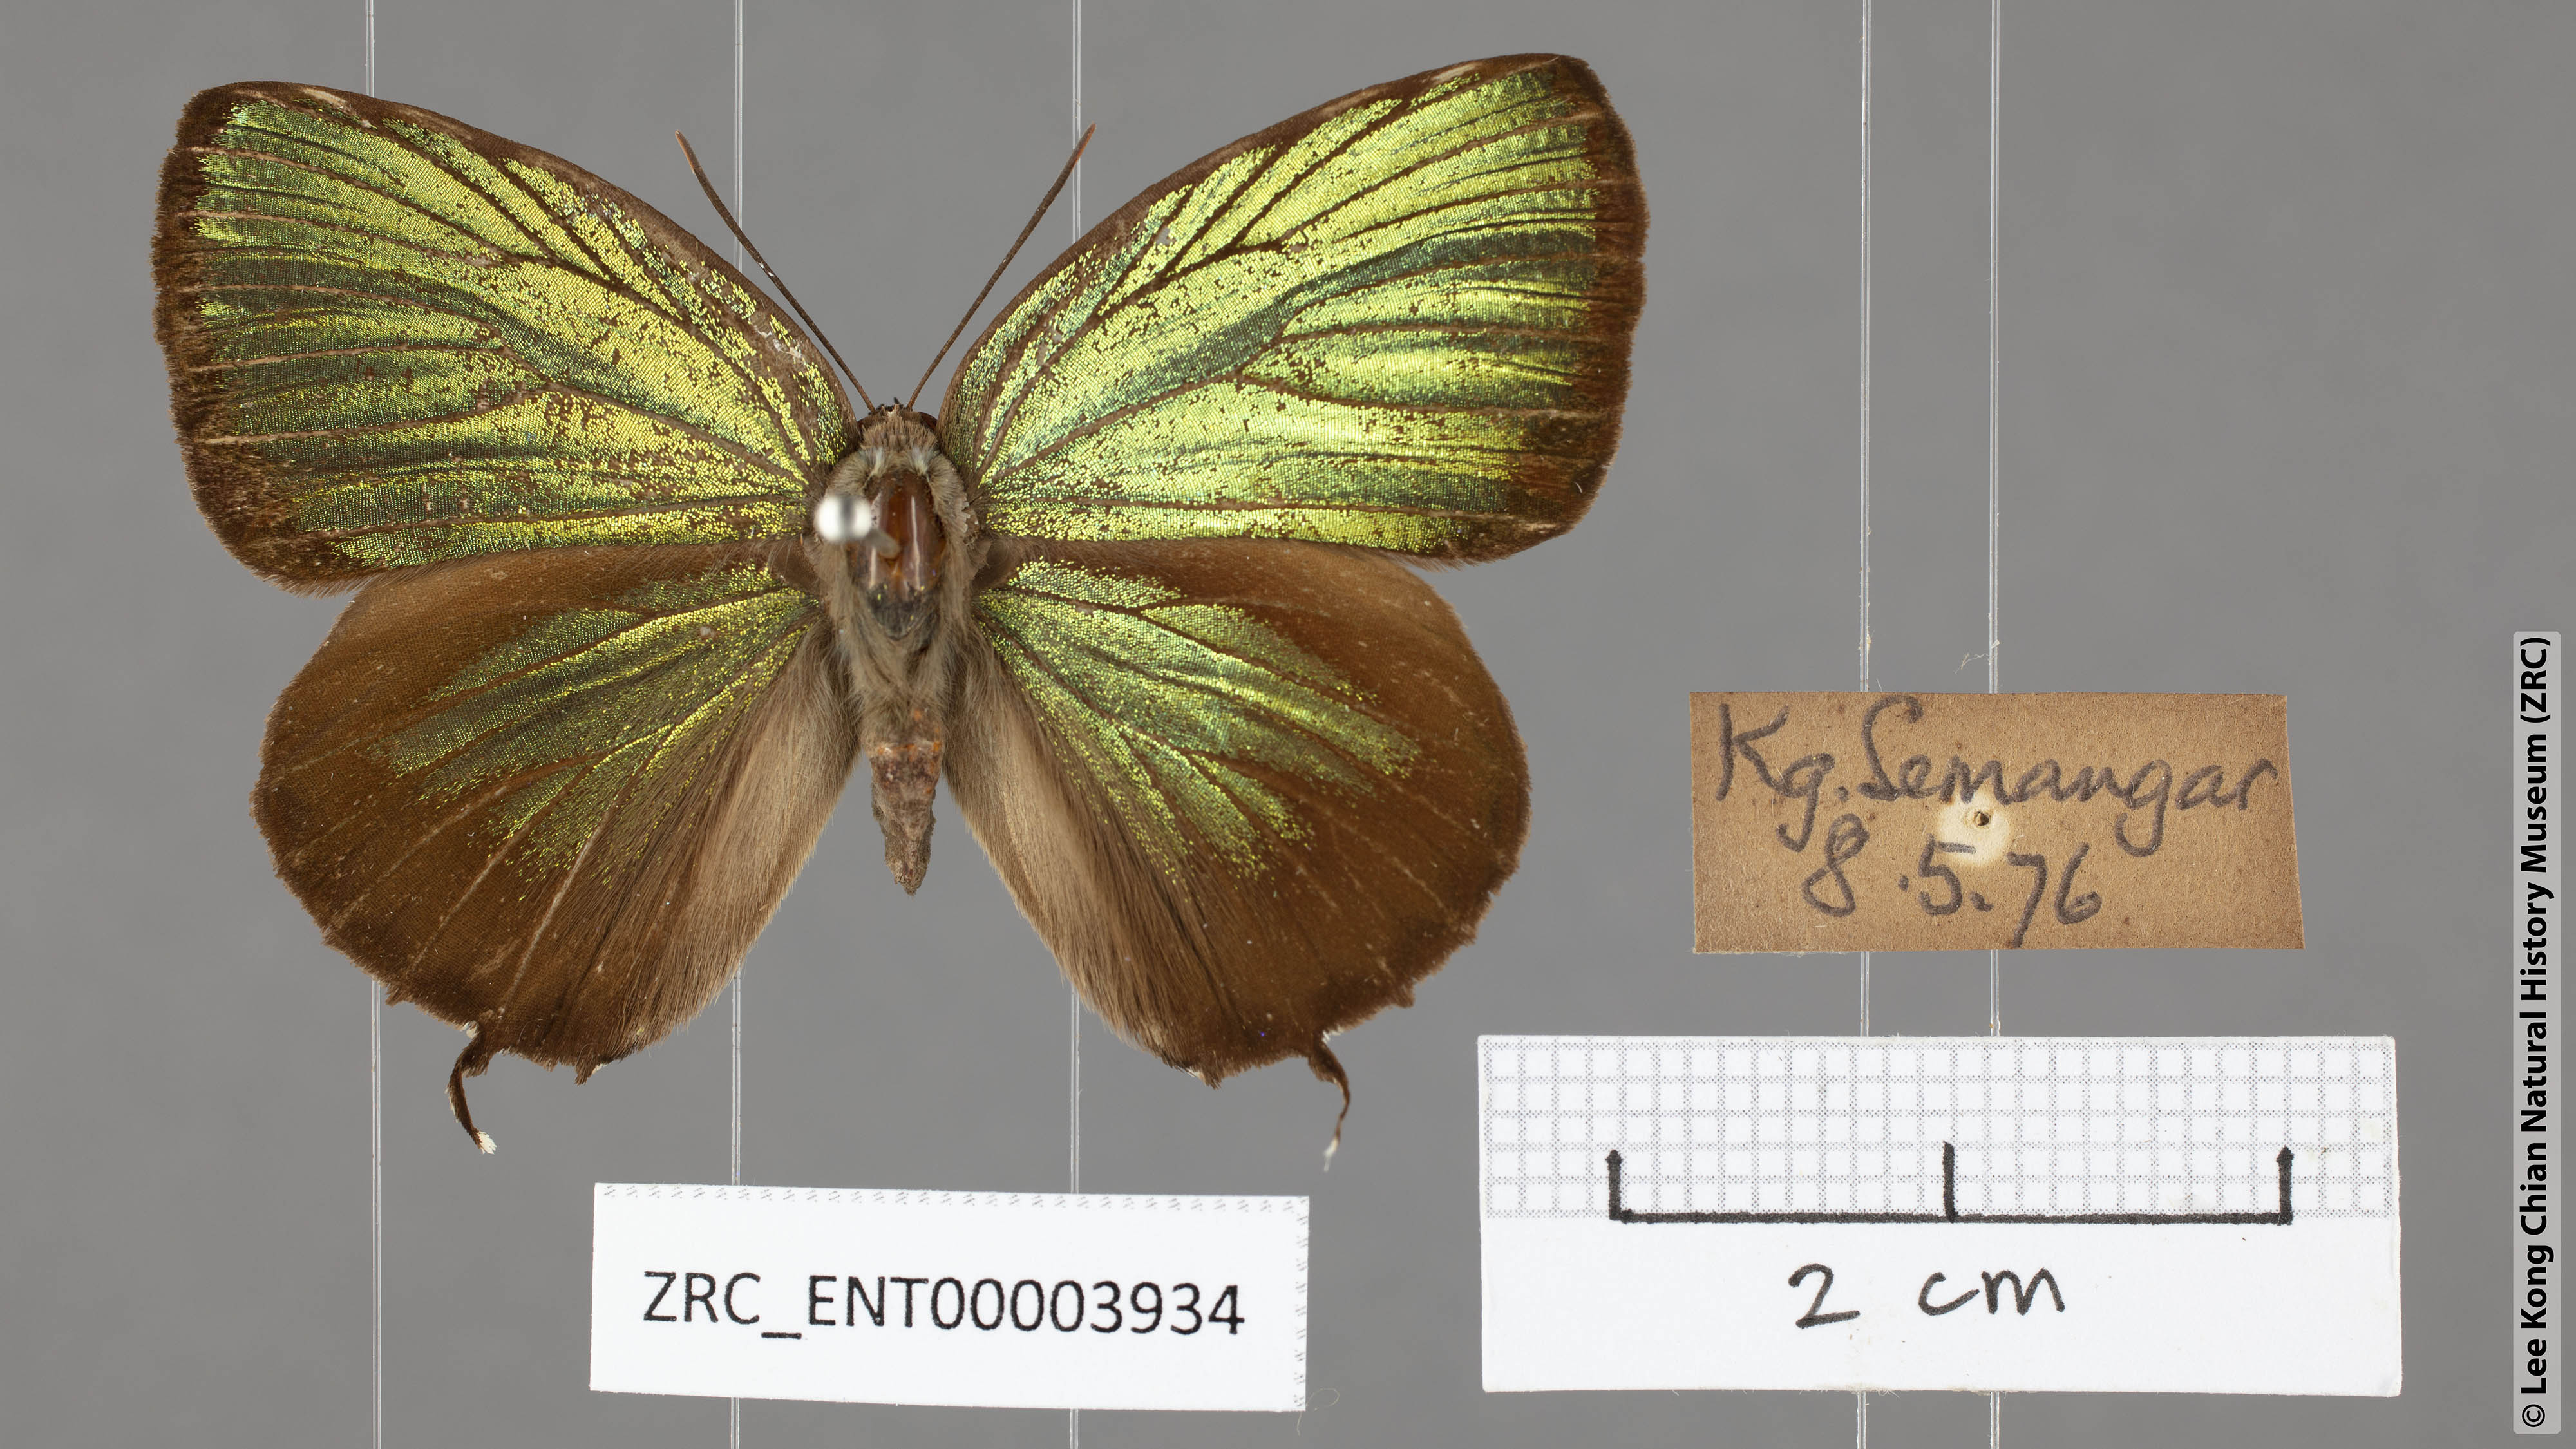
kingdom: Animalia
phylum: Arthropoda
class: Insecta
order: Lepidoptera
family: Lycaenidae
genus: Arhopala
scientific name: Arhopala eumolphus
